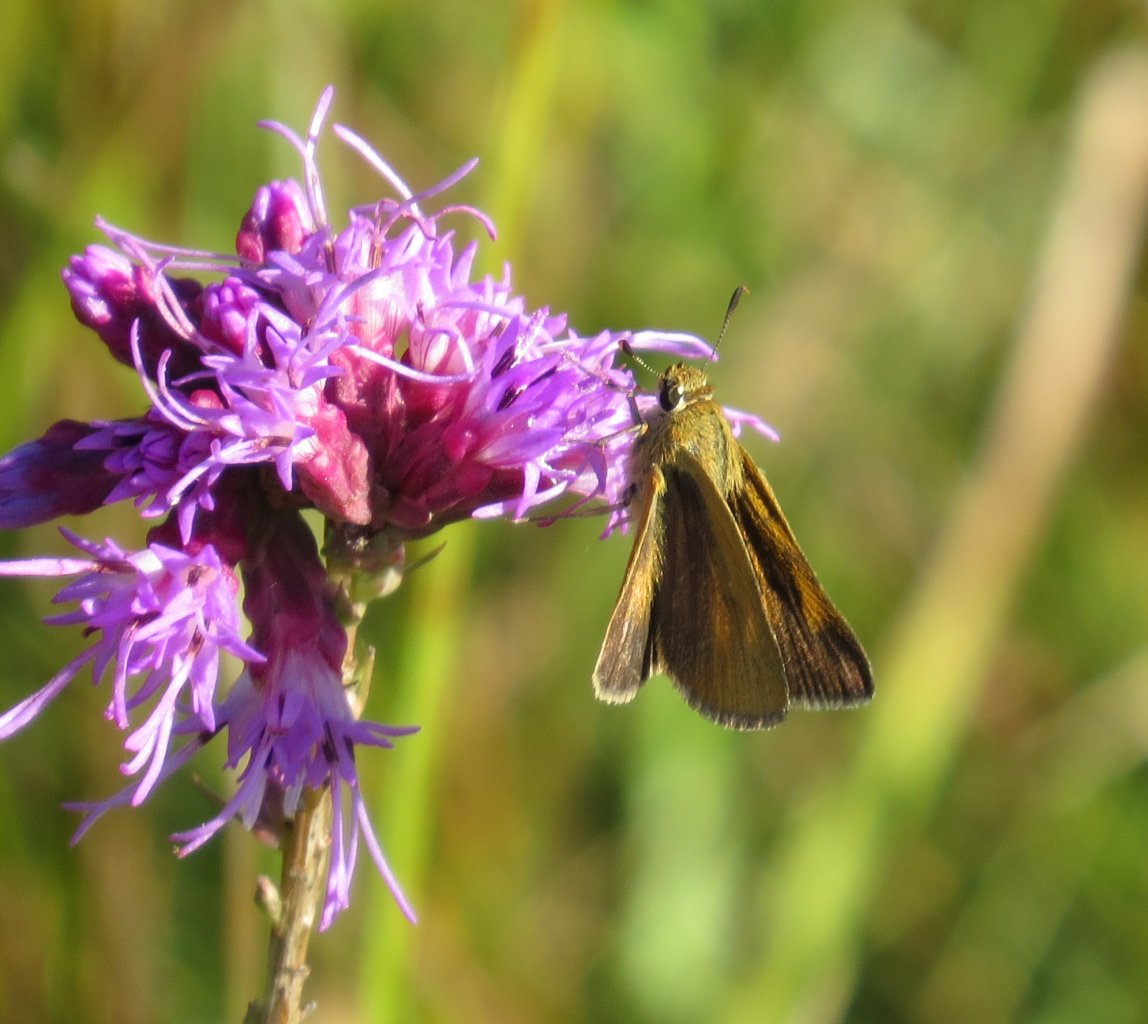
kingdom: Animalia
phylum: Arthropoda
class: Insecta
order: Lepidoptera
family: Hesperiidae
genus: Atrytone
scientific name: Atrytone arogos
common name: Arogos Skipper
